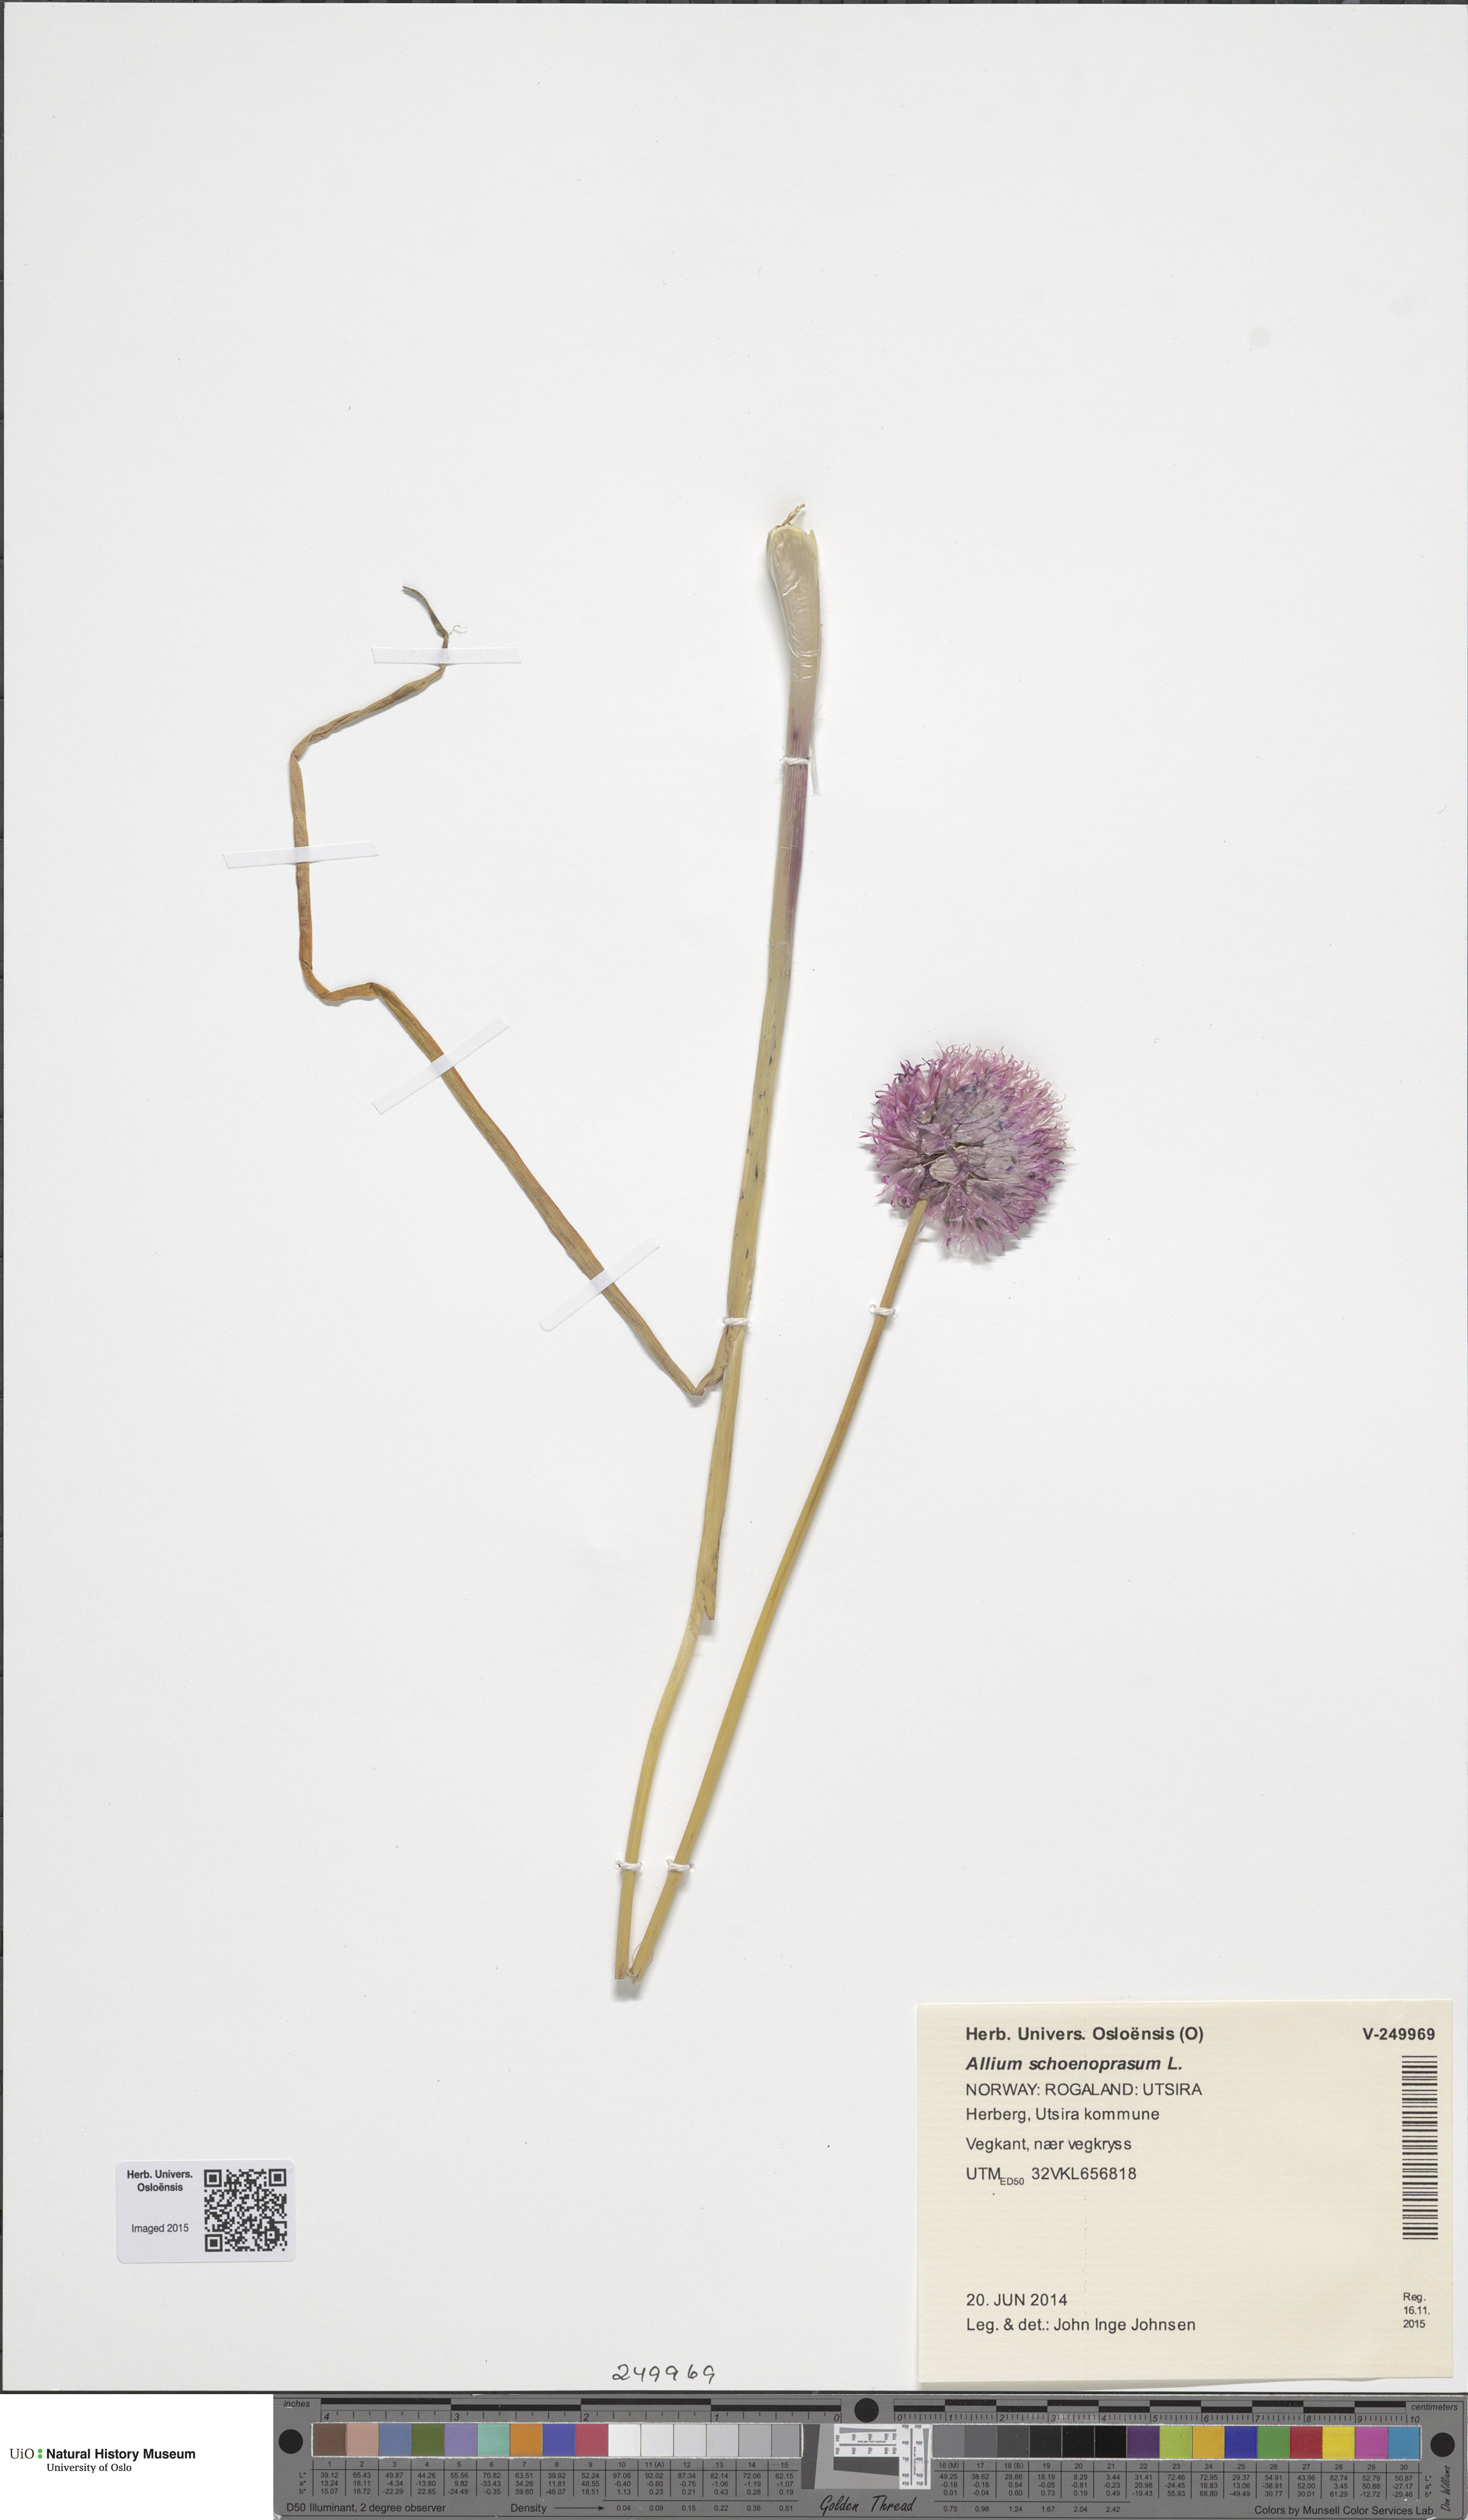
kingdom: Plantae
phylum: Tracheophyta
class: Liliopsida
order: Asparagales
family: Amaryllidaceae
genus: Allium
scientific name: Allium schoenoprasum
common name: Chives
